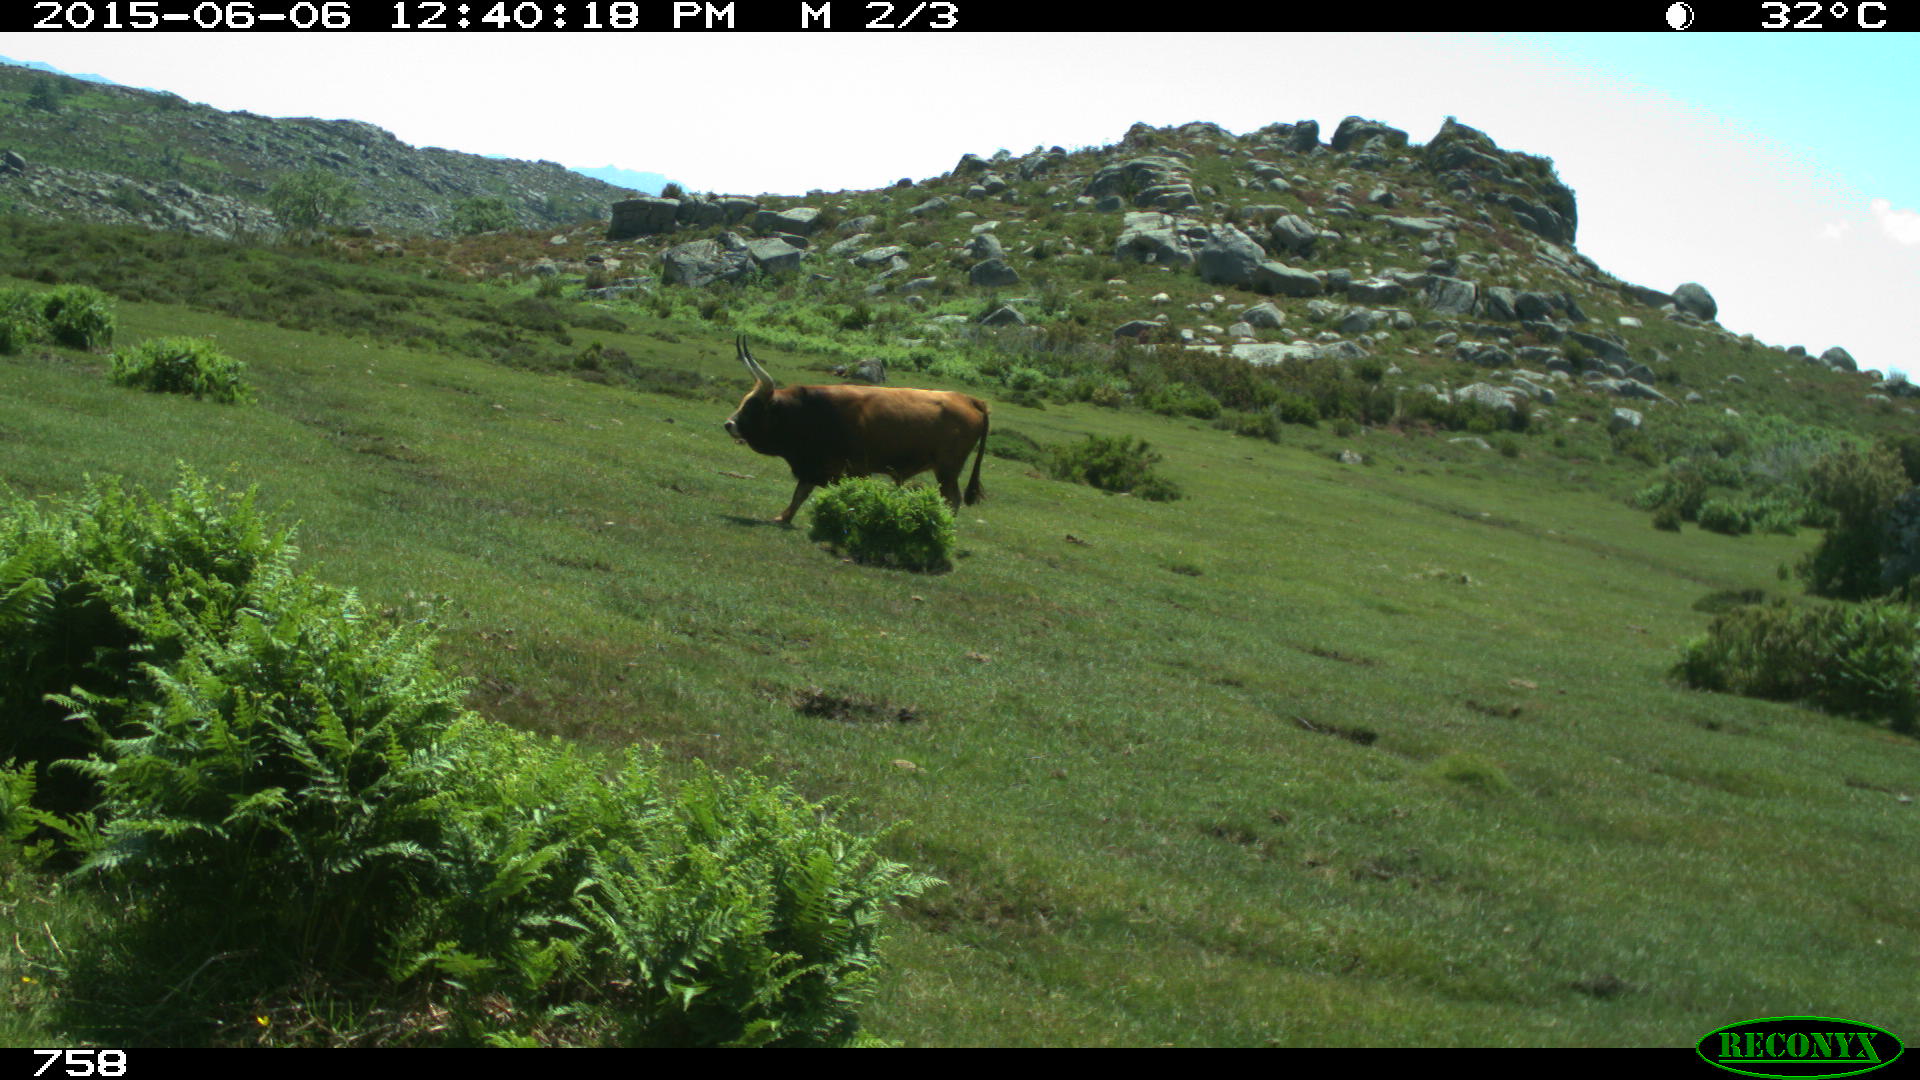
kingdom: Animalia
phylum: Chordata
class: Mammalia
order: Artiodactyla
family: Bovidae
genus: Bos
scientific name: Bos taurus
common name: Domesticated cattle
